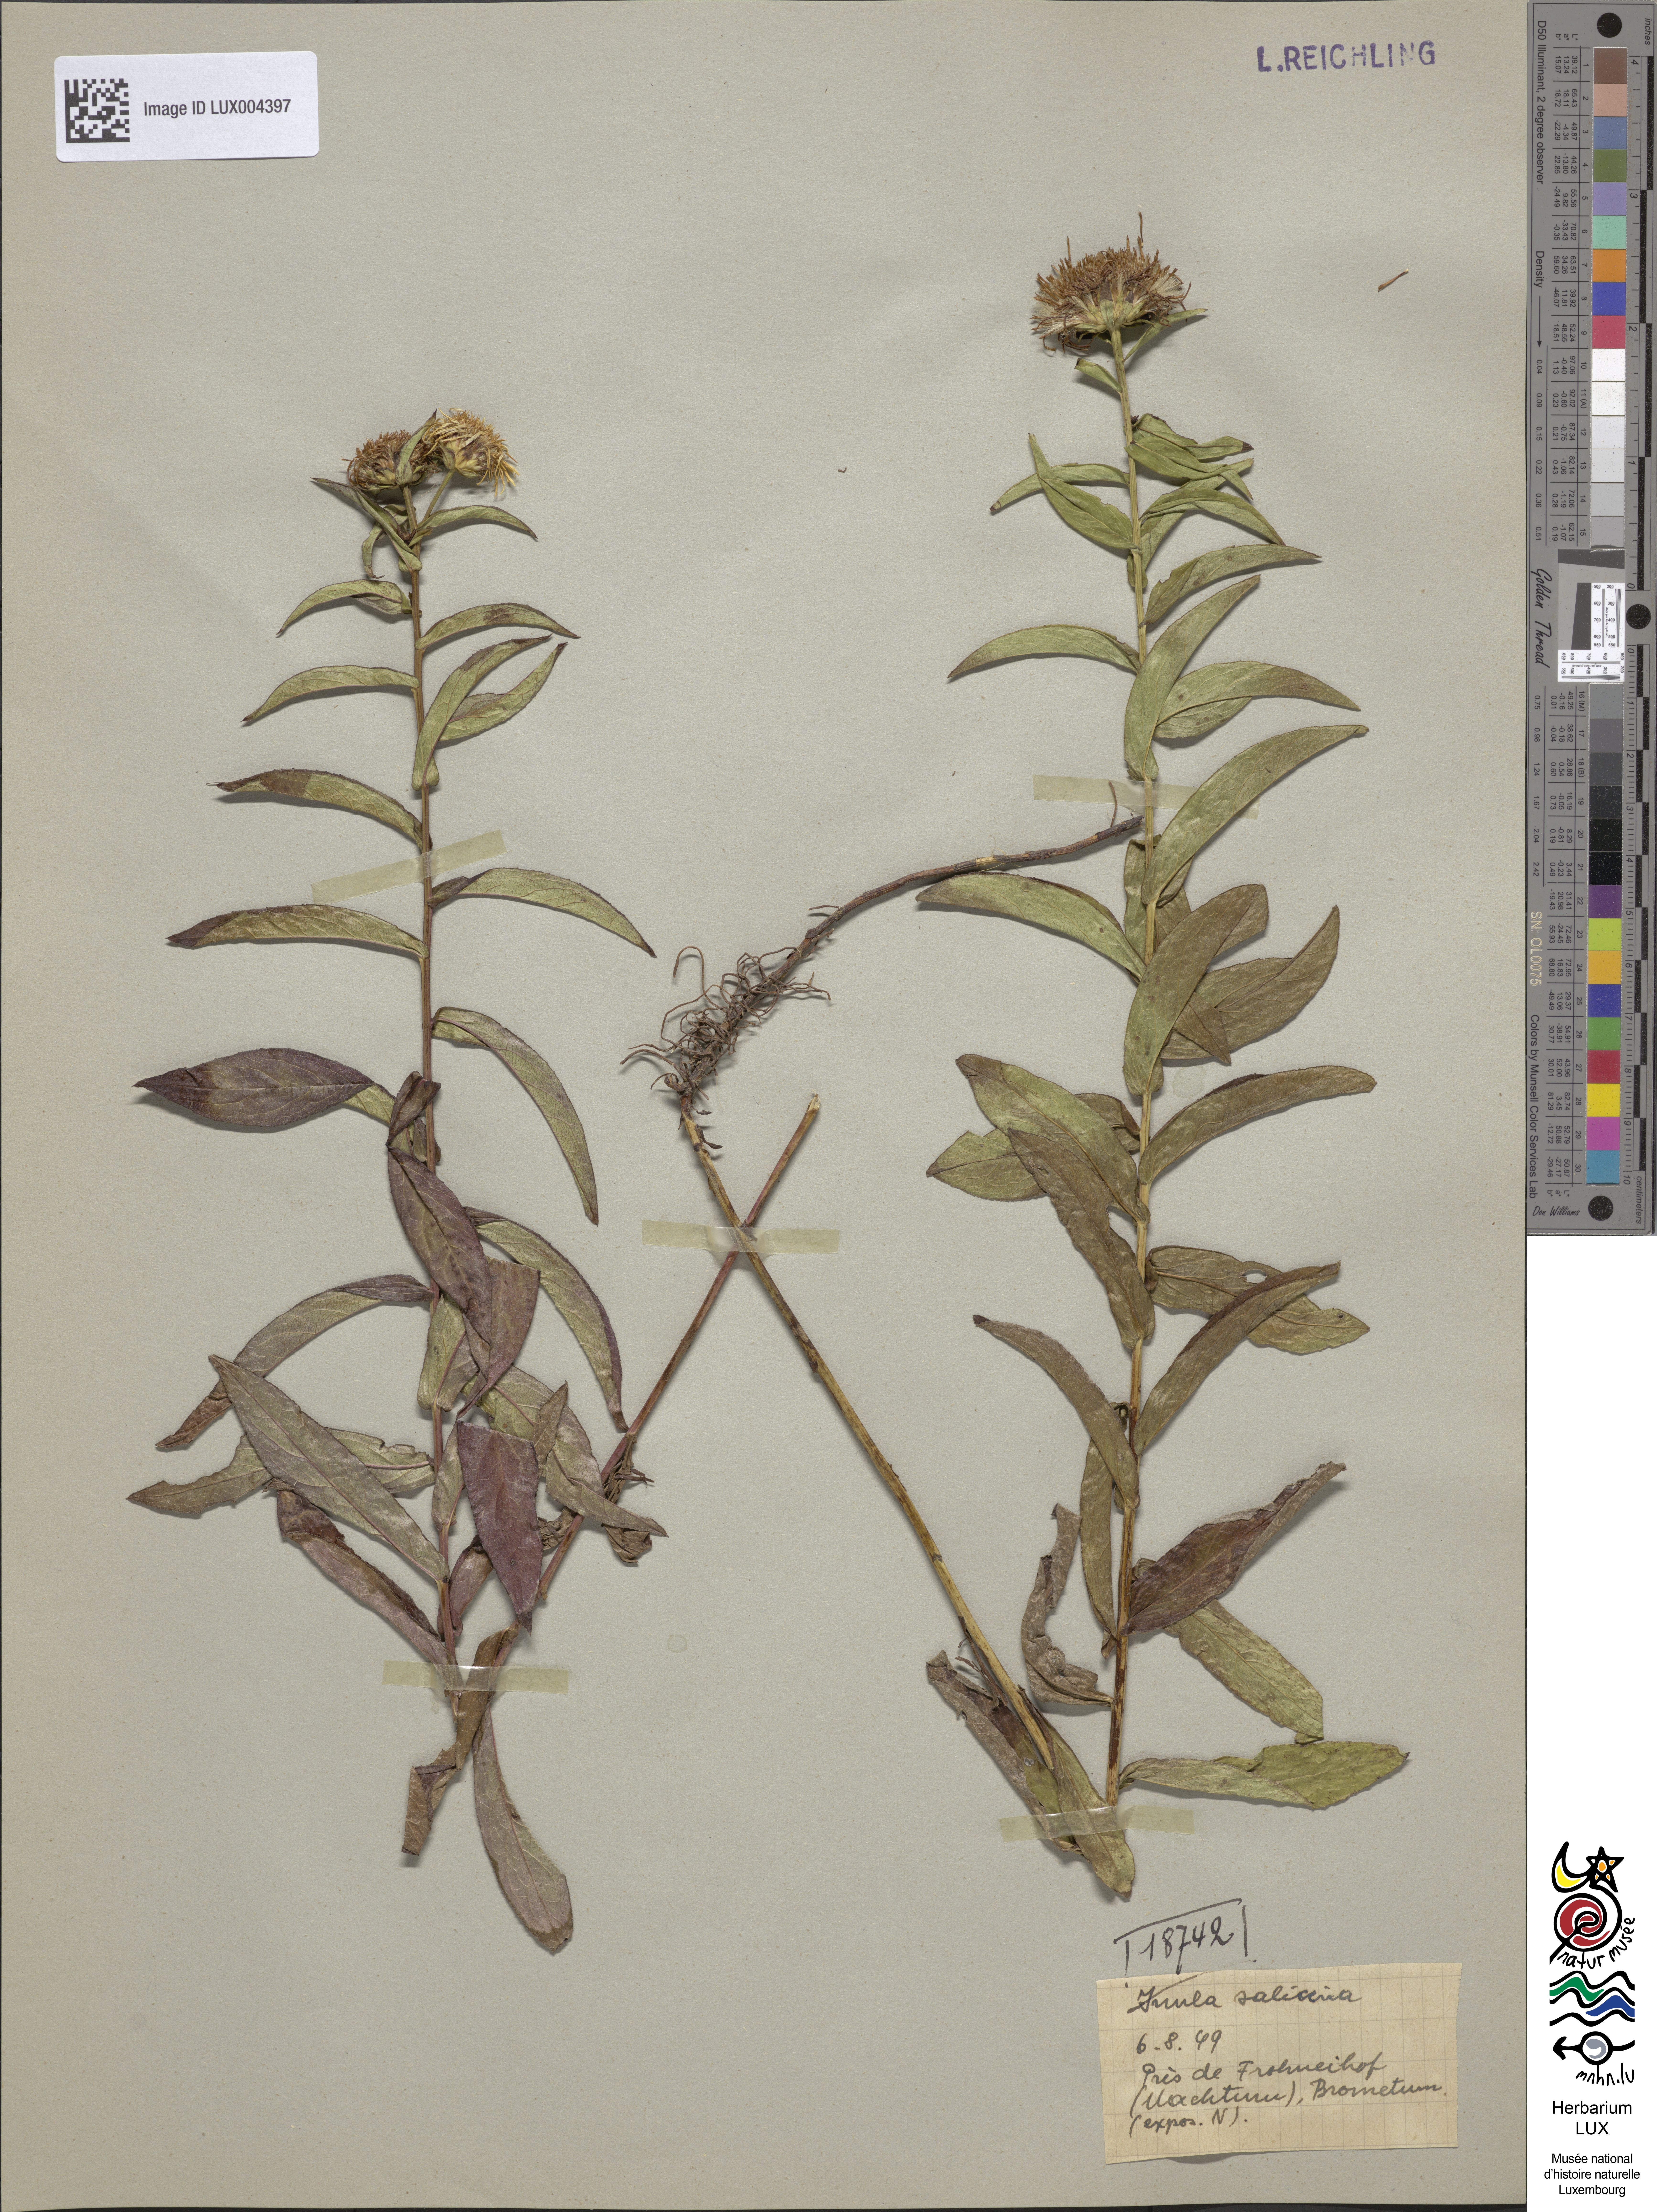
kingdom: Plantae
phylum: Tracheophyta
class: Magnoliopsida
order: Asterales
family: Asteraceae
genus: Pentanema
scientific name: Pentanema salicinum
